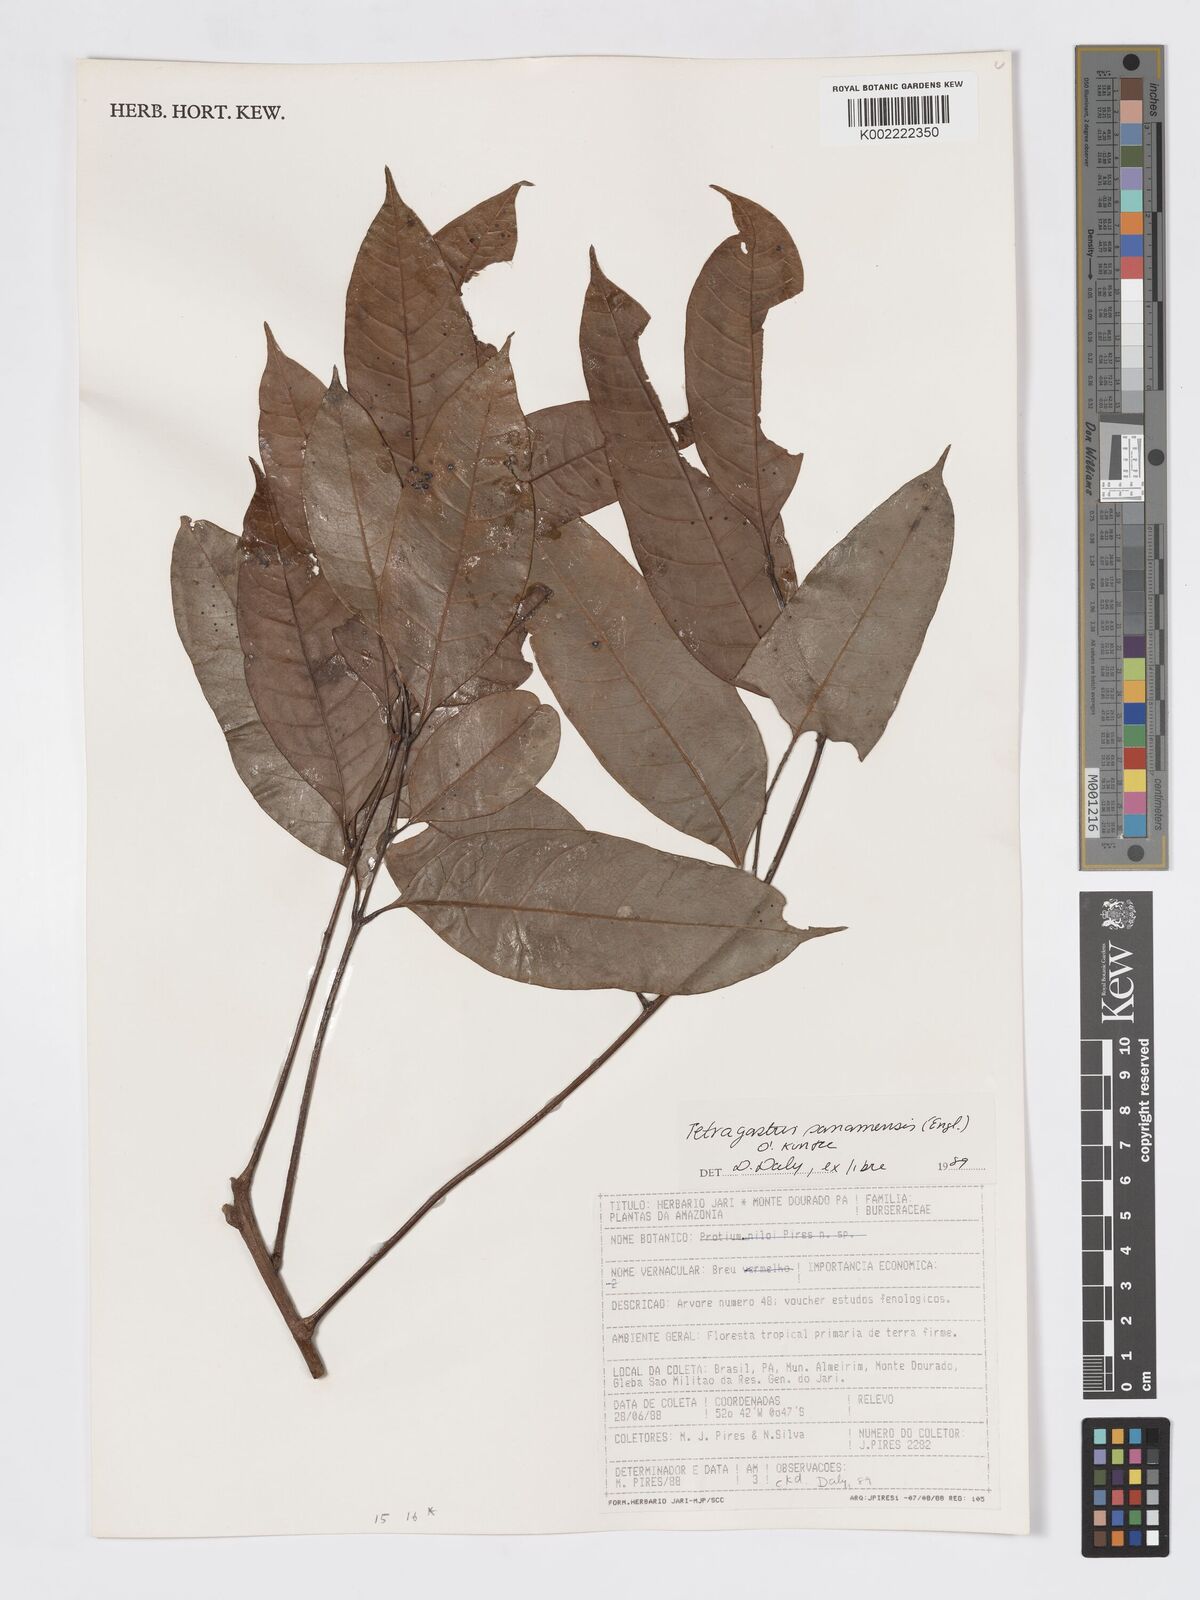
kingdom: Plantae
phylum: Tracheophyta
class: Magnoliopsida
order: Sapindales
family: Burseraceae
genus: Tetragastris
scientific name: Tetragastris panamensis
